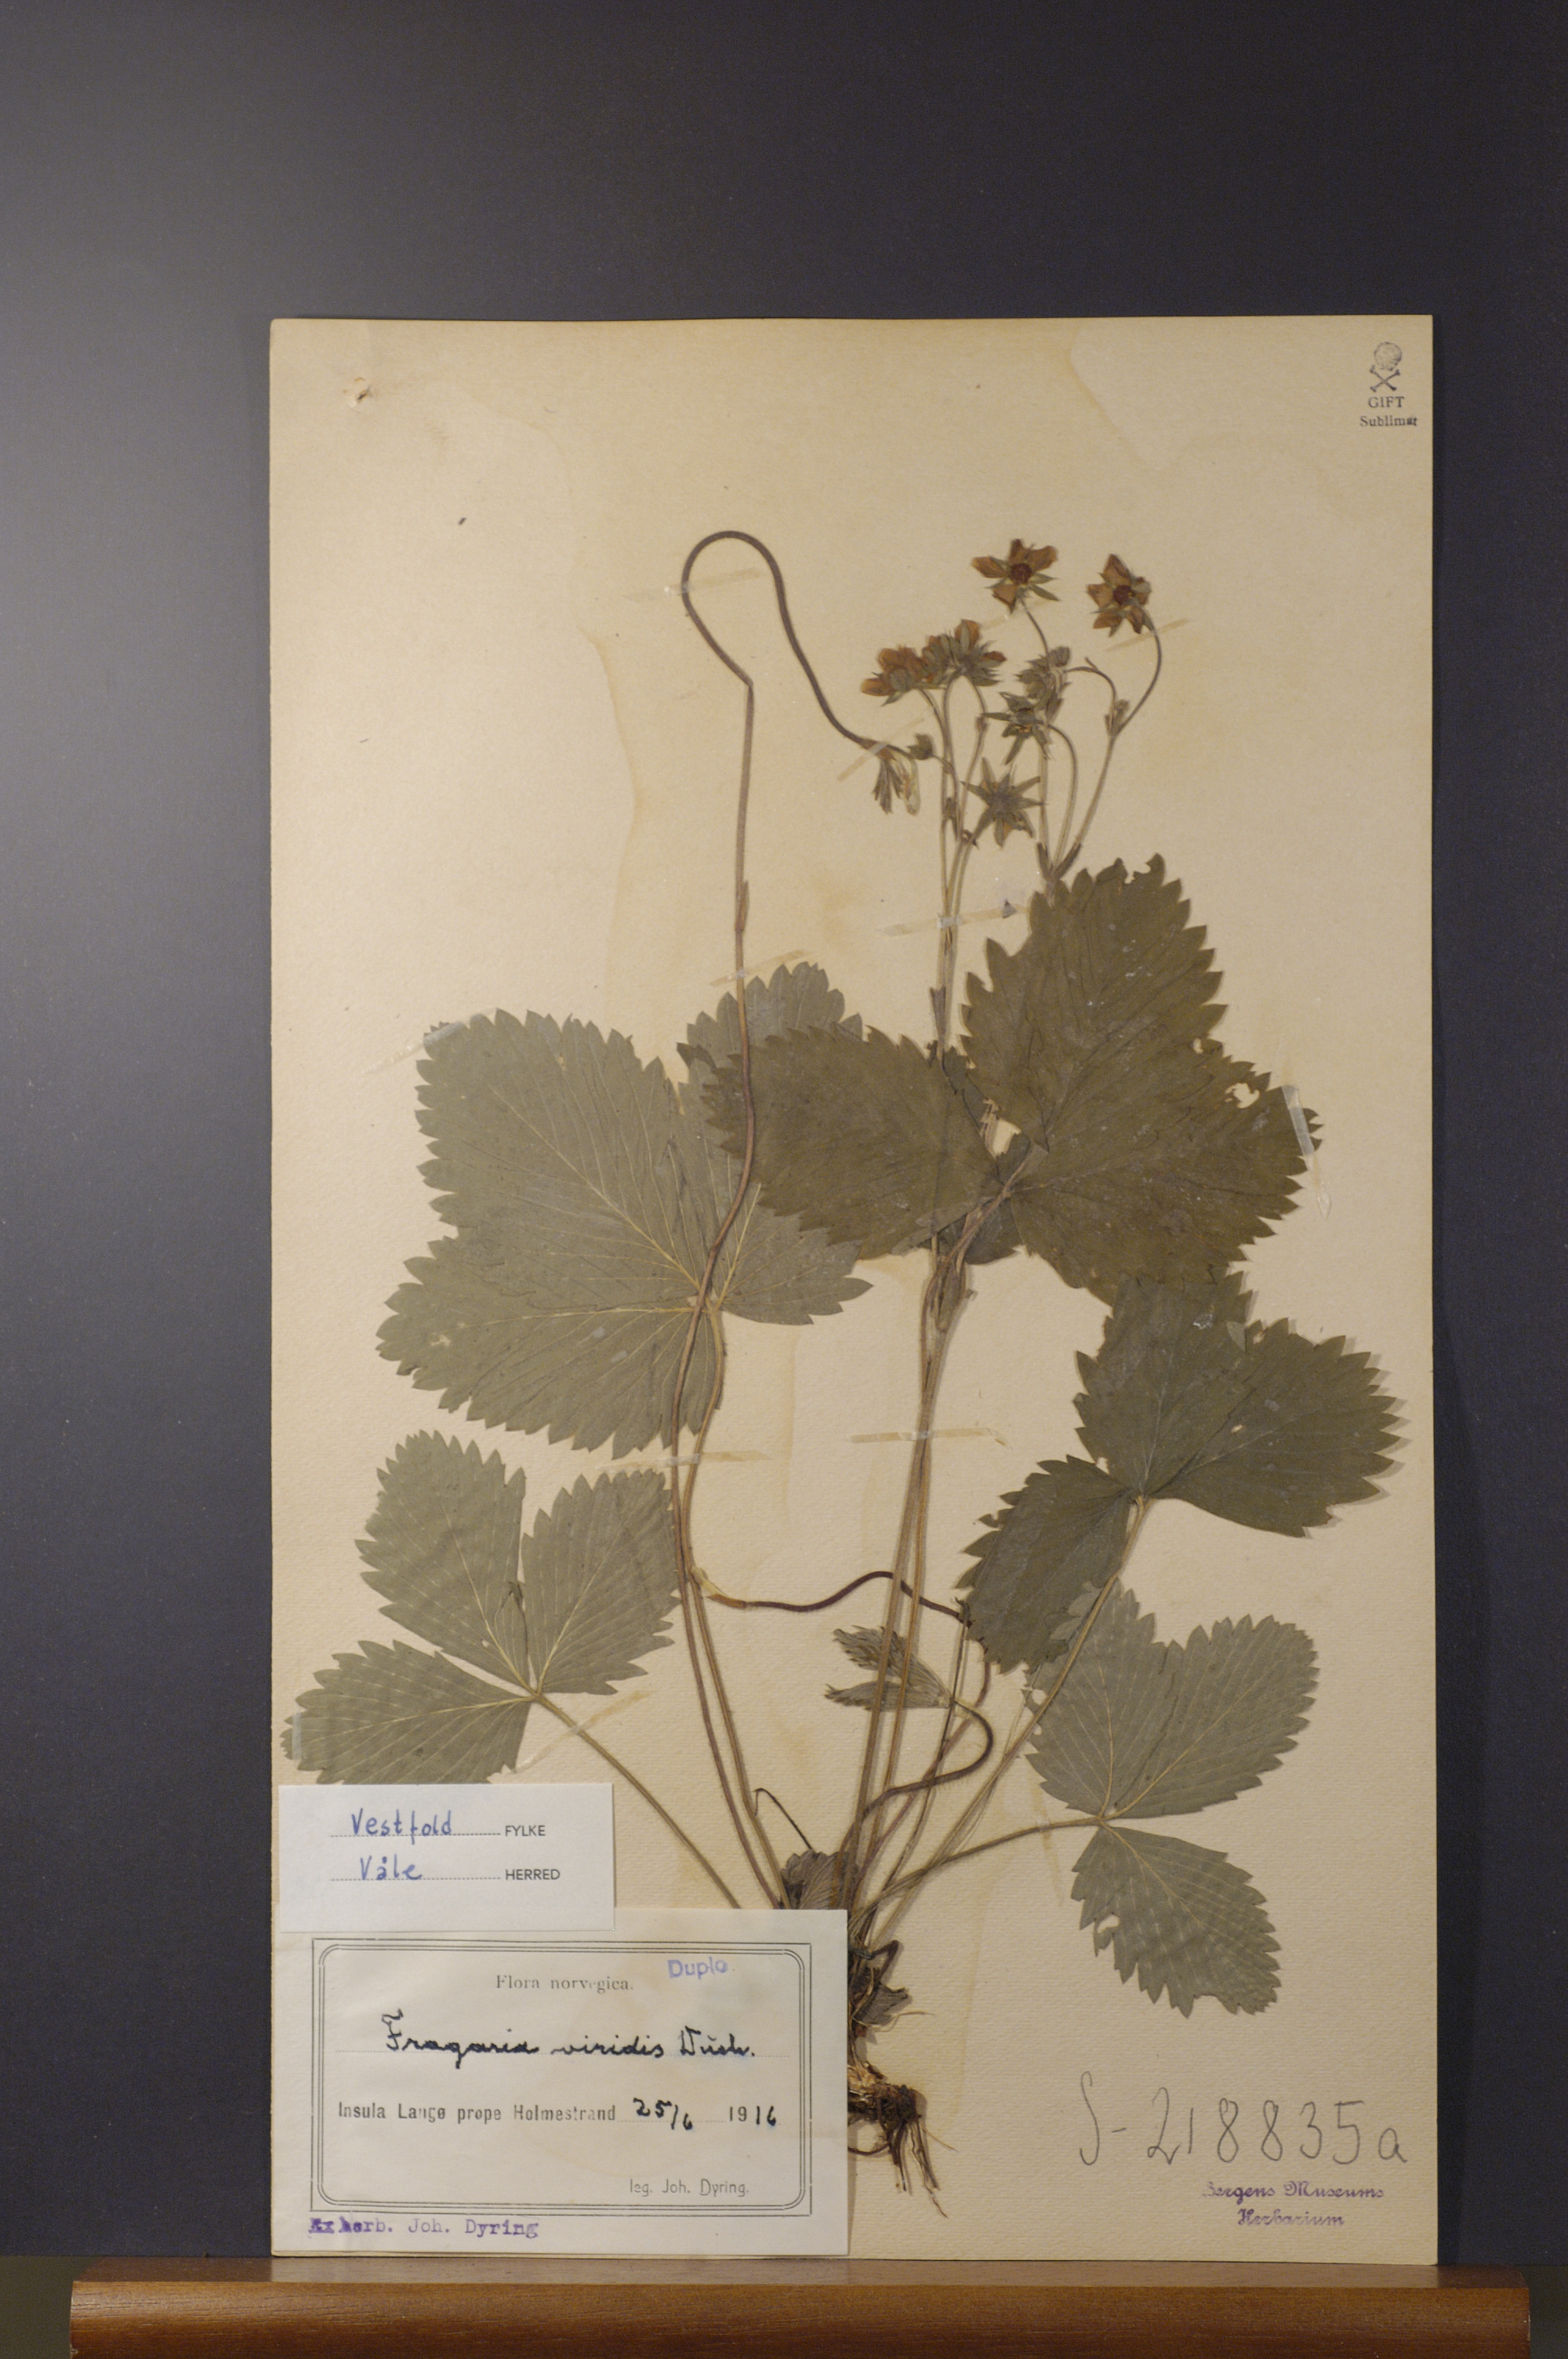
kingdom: Plantae
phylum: Tracheophyta
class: Magnoliopsida
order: Rosales
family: Rosaceae
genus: Fragaria
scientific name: Fragaria viridis
